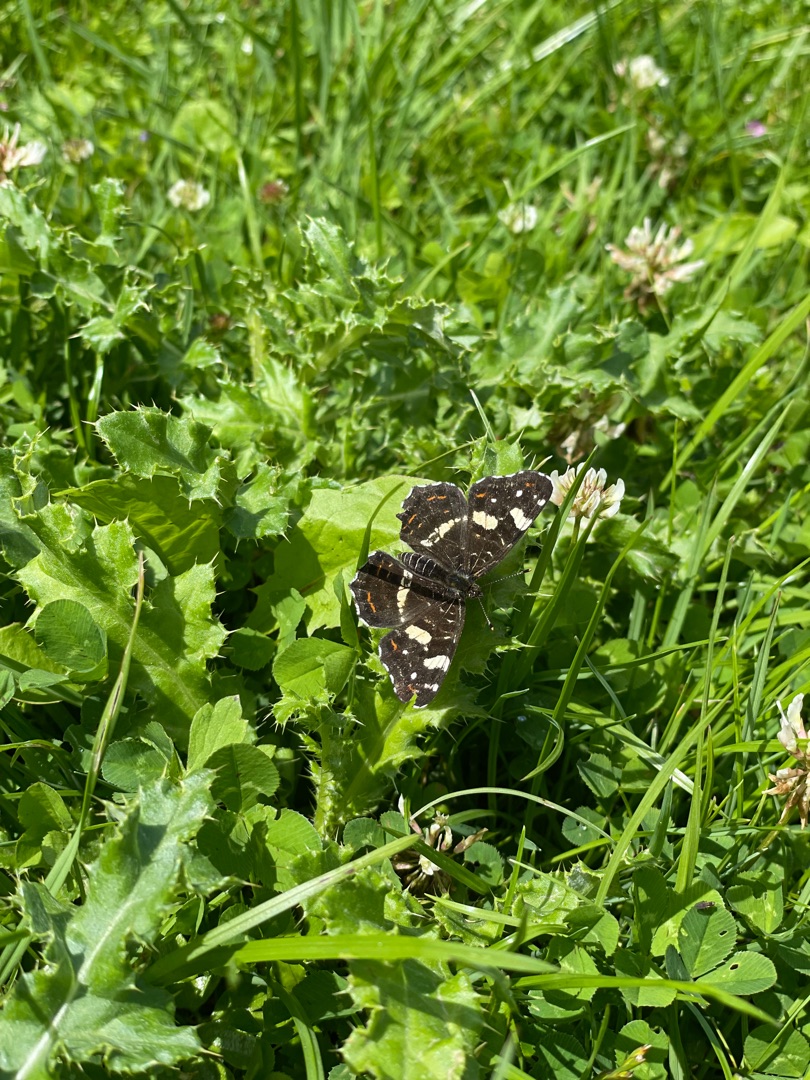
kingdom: Animalia
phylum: Arthropoda
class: Insecta
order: Lepidoptera
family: Nymphalidae
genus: Araschnia
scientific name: Araschnia levana
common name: Nældesommerfugl
